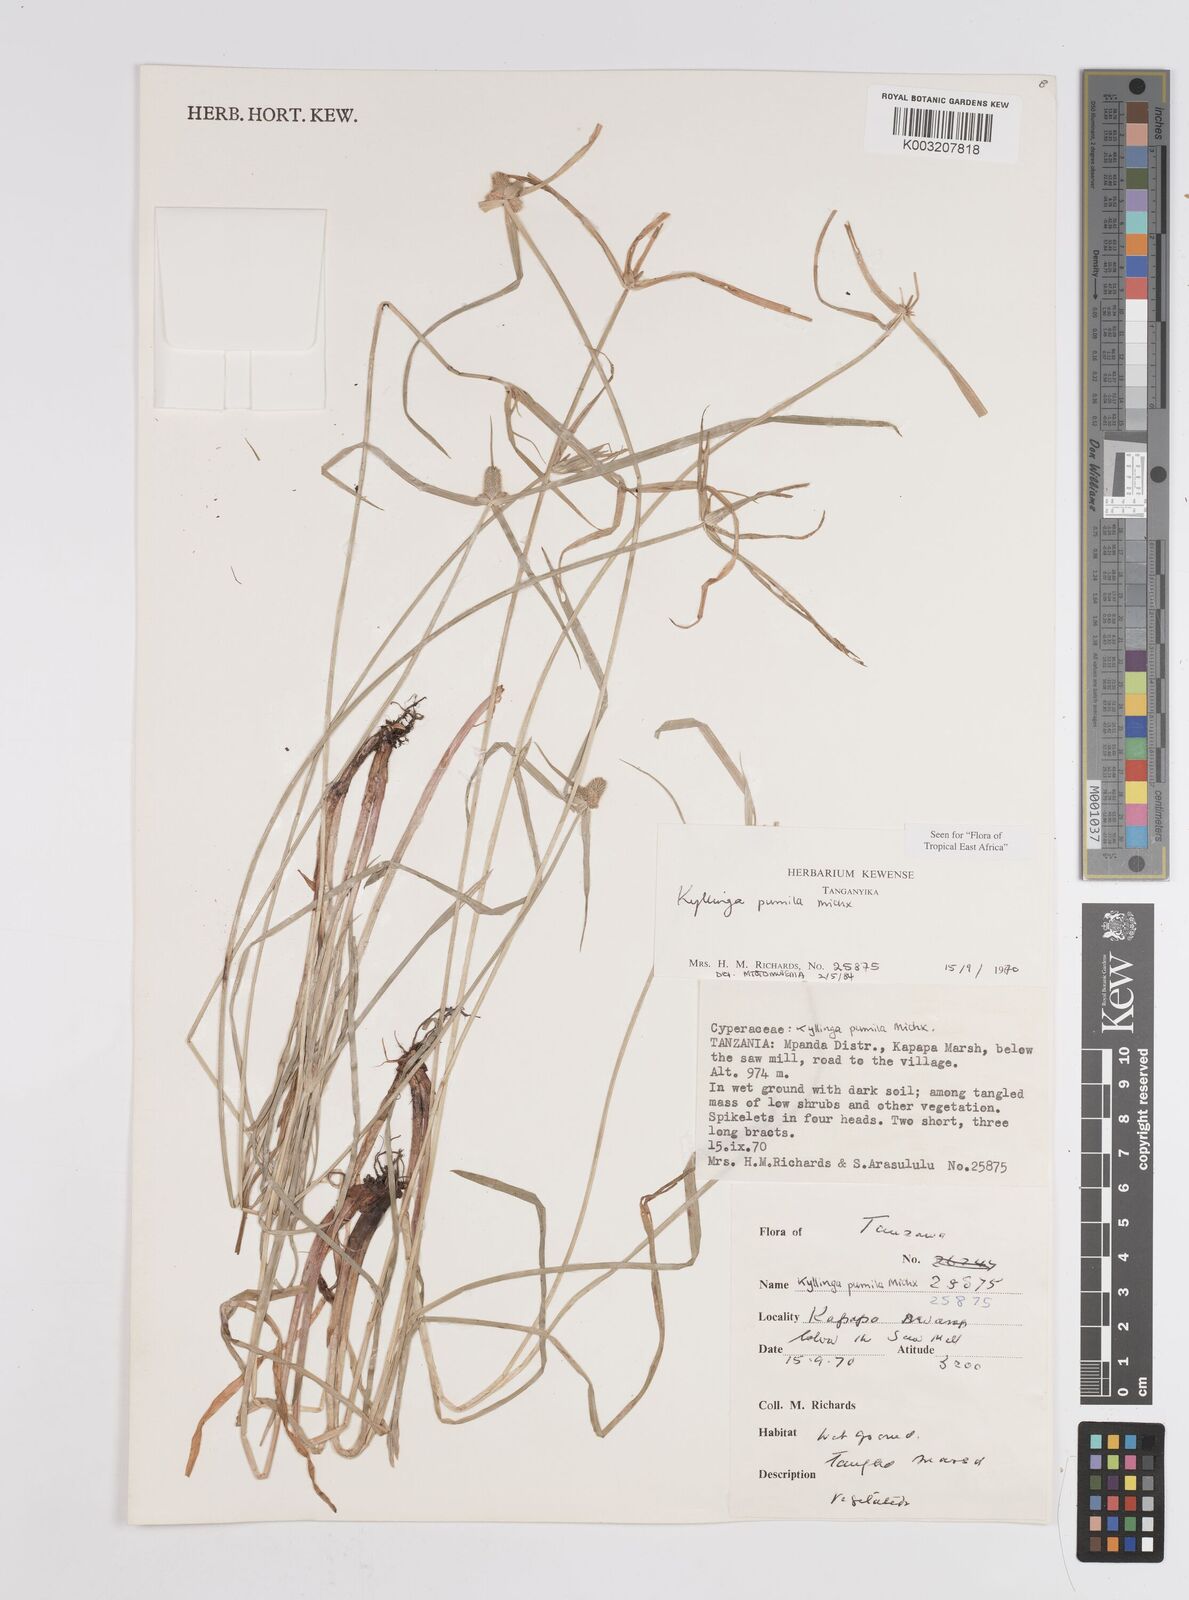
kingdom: Plantae
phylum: Tracheophyta
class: Liliopsida
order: Poales
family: Cyperaceae
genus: Cyperus
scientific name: Cyperus hortensis
